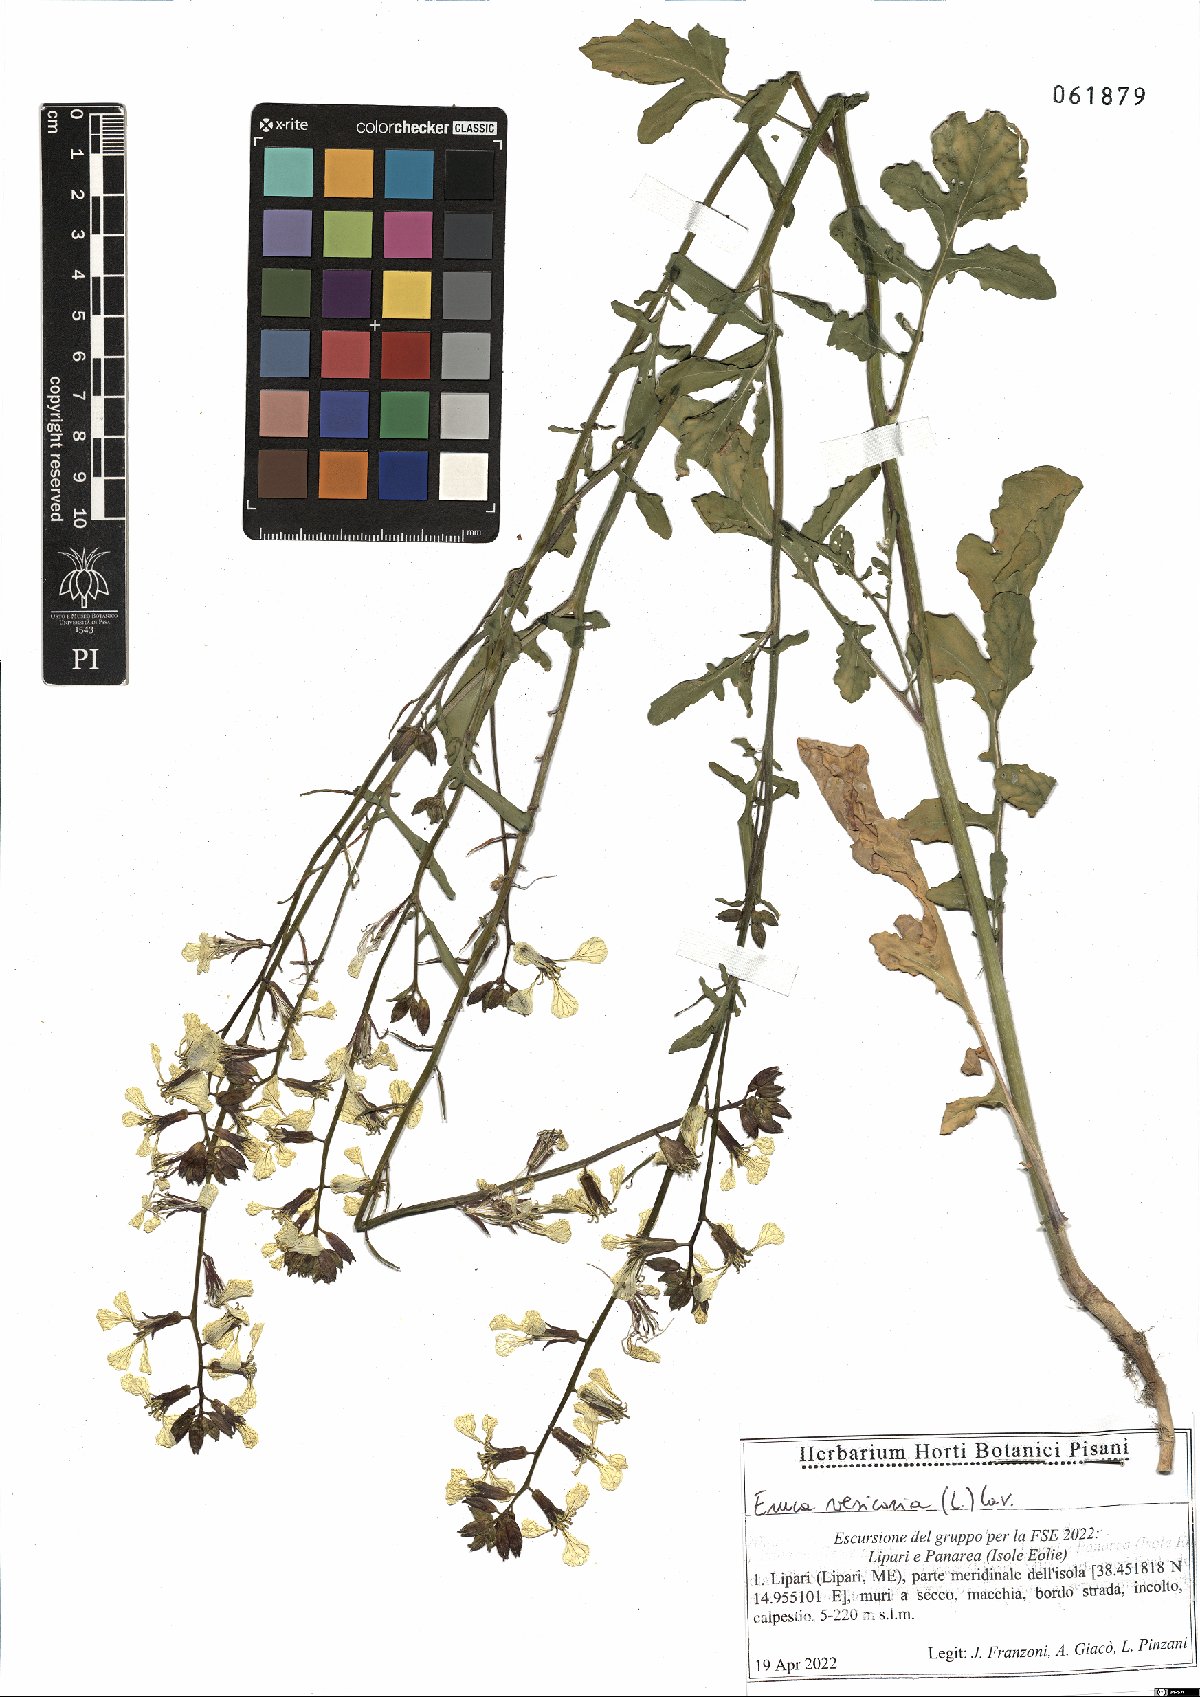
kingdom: Plantae
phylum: Tracheophyta
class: Magnoliopsida
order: Brassicales
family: Brassicaceae
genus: Eruca
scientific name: Eruca vesicaria
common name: Garden rocket
